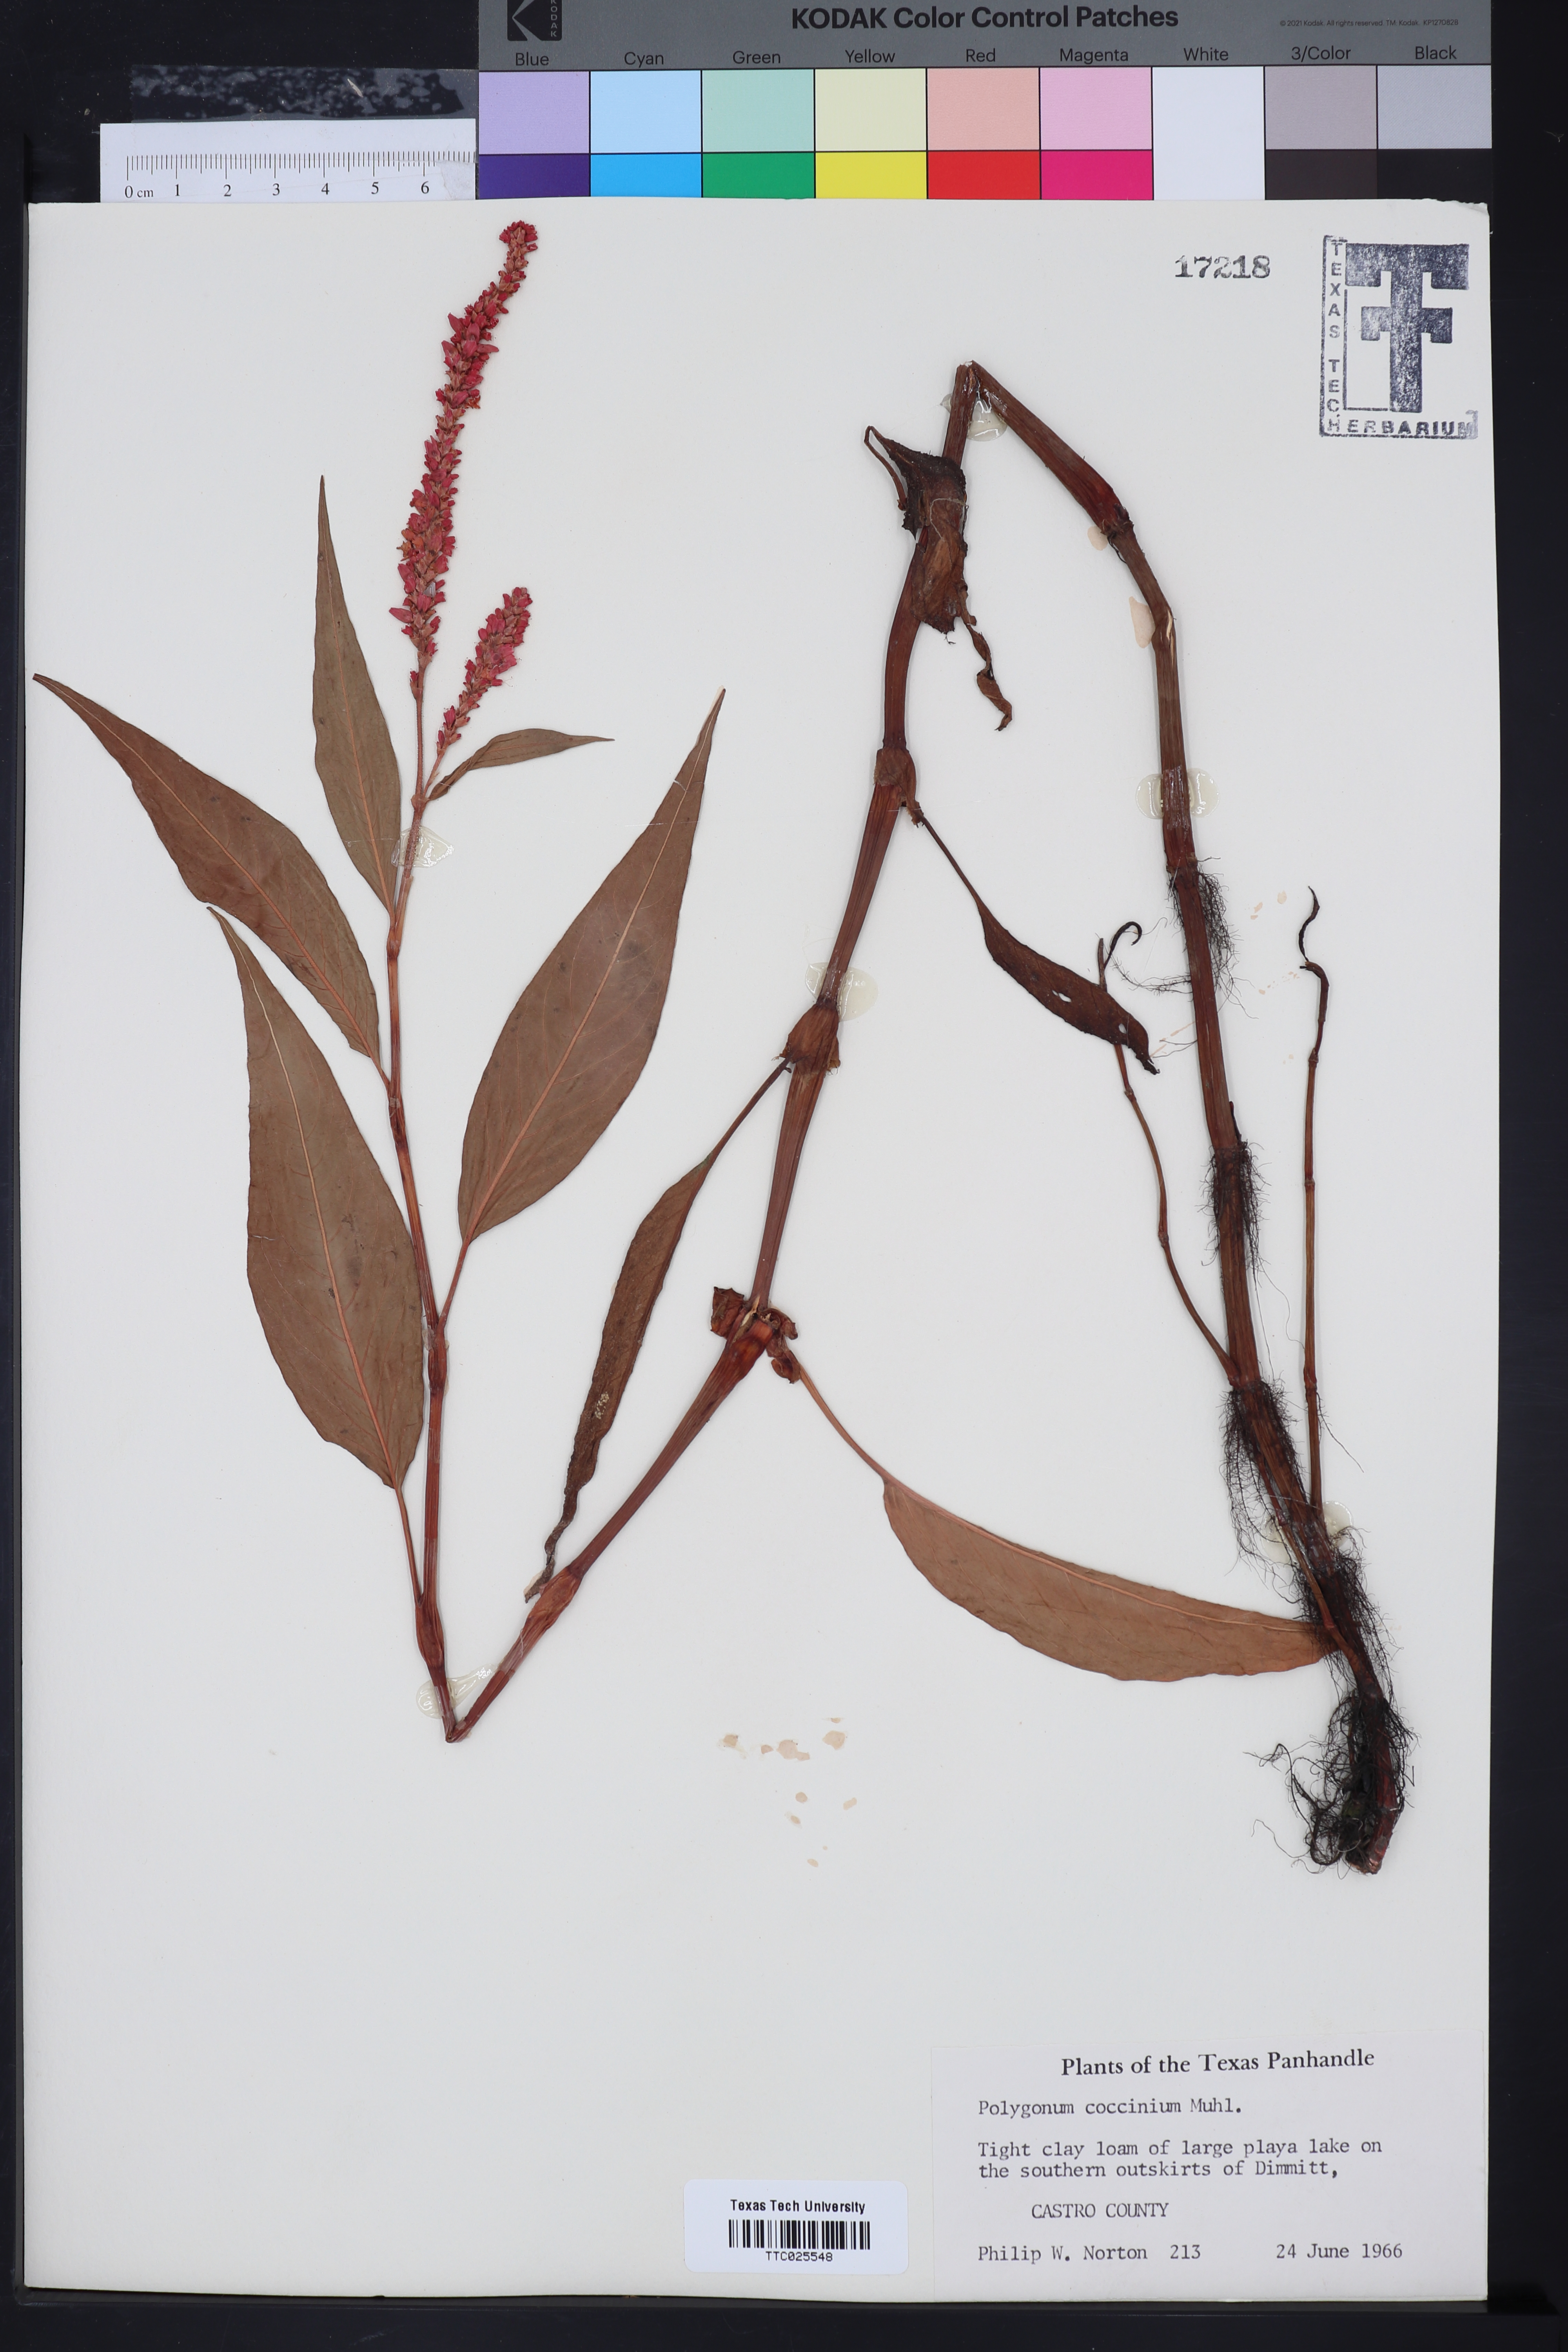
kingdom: Plantae
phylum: Tracheophyta
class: Magnoliopsida
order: Caryophyllales
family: Polygonaceae
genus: Persicaria
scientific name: Persicaria amphibia
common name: Amphibious bistort
